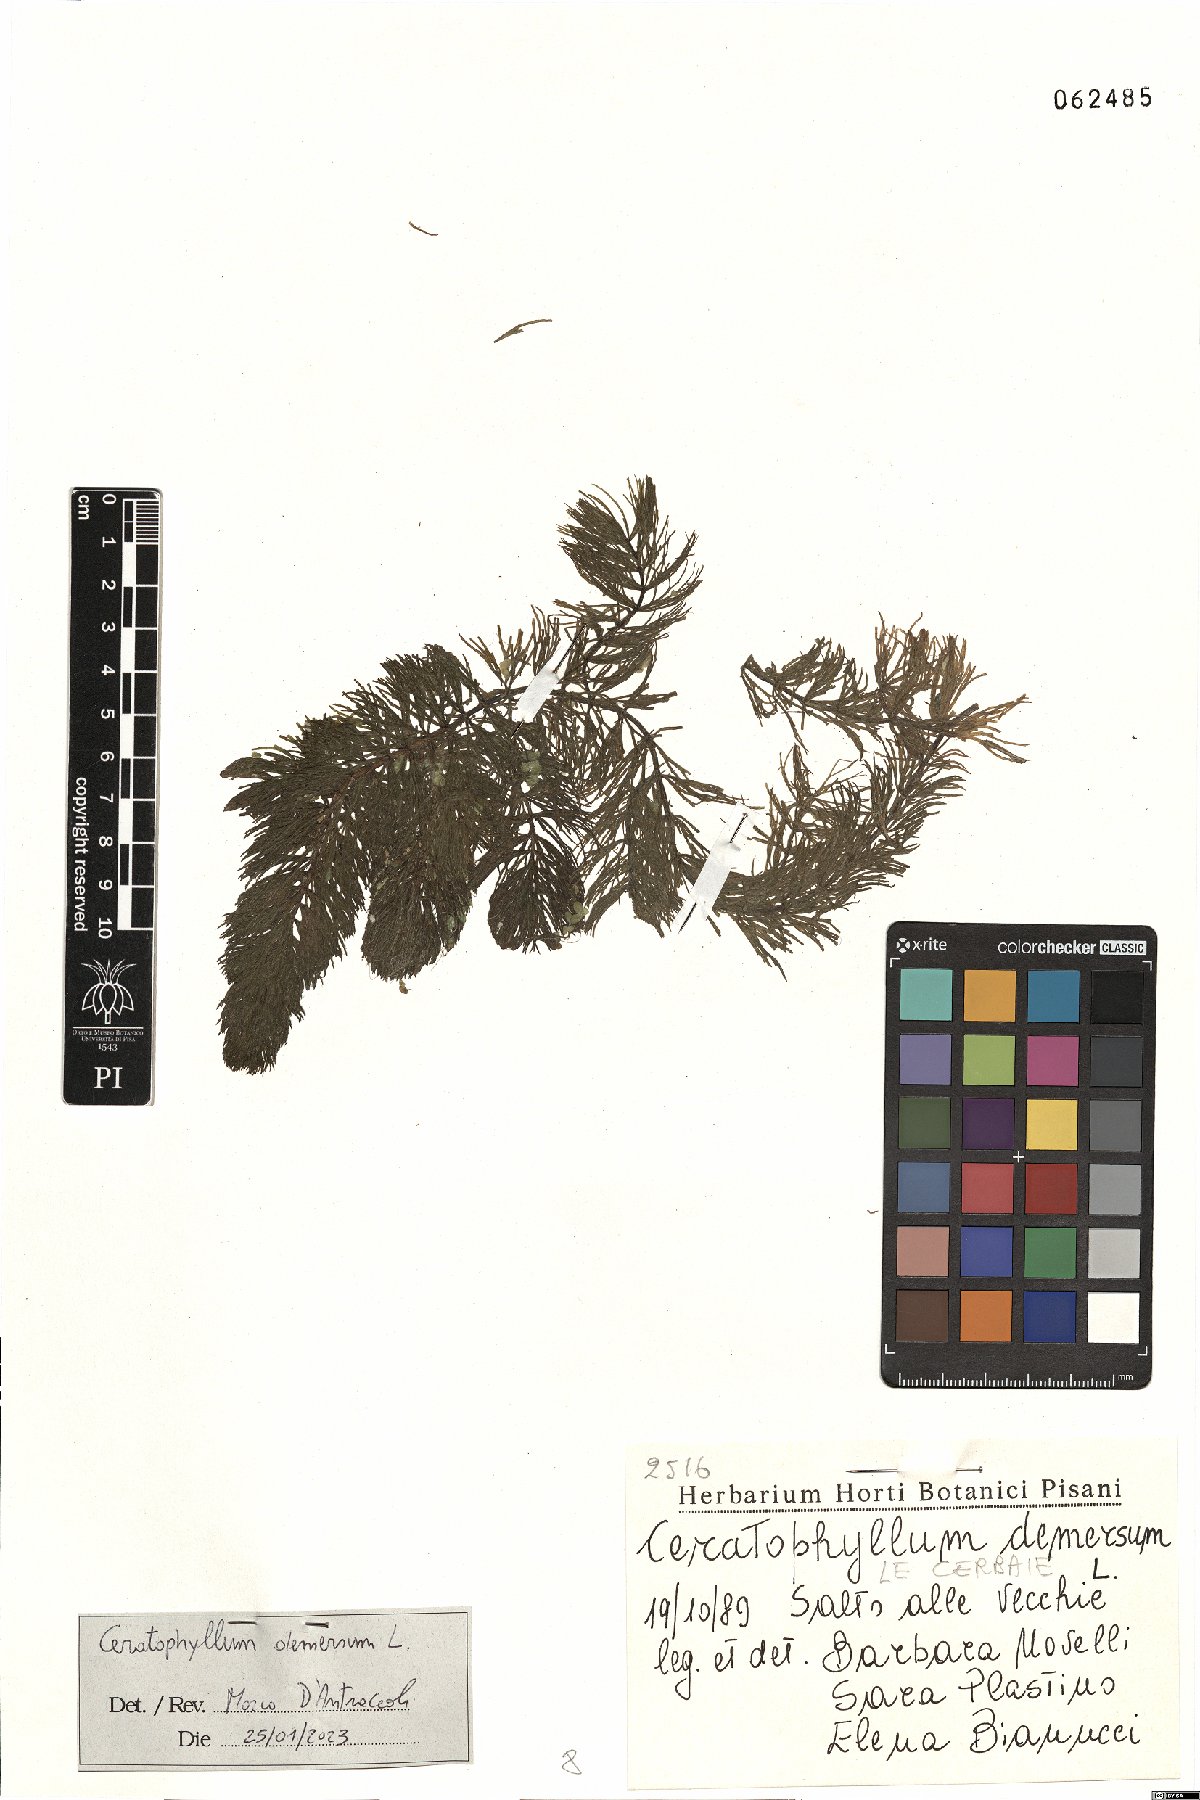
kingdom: Plantae
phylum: Tracheophyta
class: Magnoliopsida
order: Ceratophyllales
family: Ceratophyllaceae
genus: Ceratophyllum
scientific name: Ceratophyllum demersum
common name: Rigid hornwort
